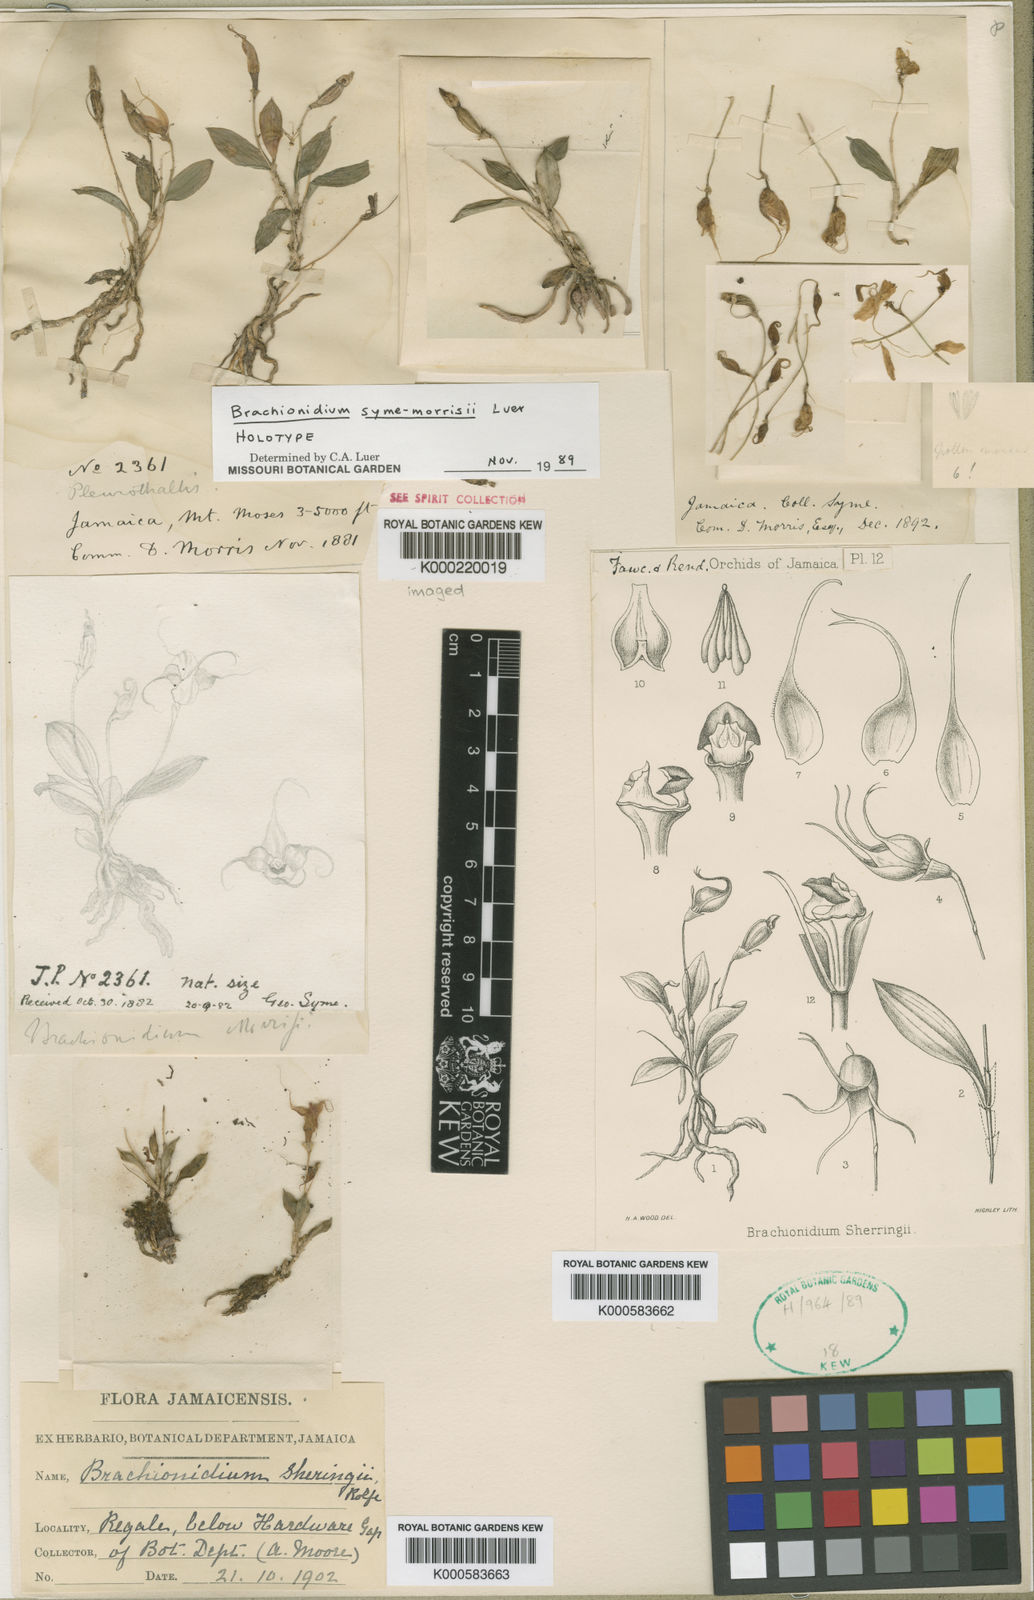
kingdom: Plantae
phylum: Tracheophyta
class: Liliopsida
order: Asparagales
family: Orchidaceae
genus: Brachionidium
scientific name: Brachionidium syme-morrisii
